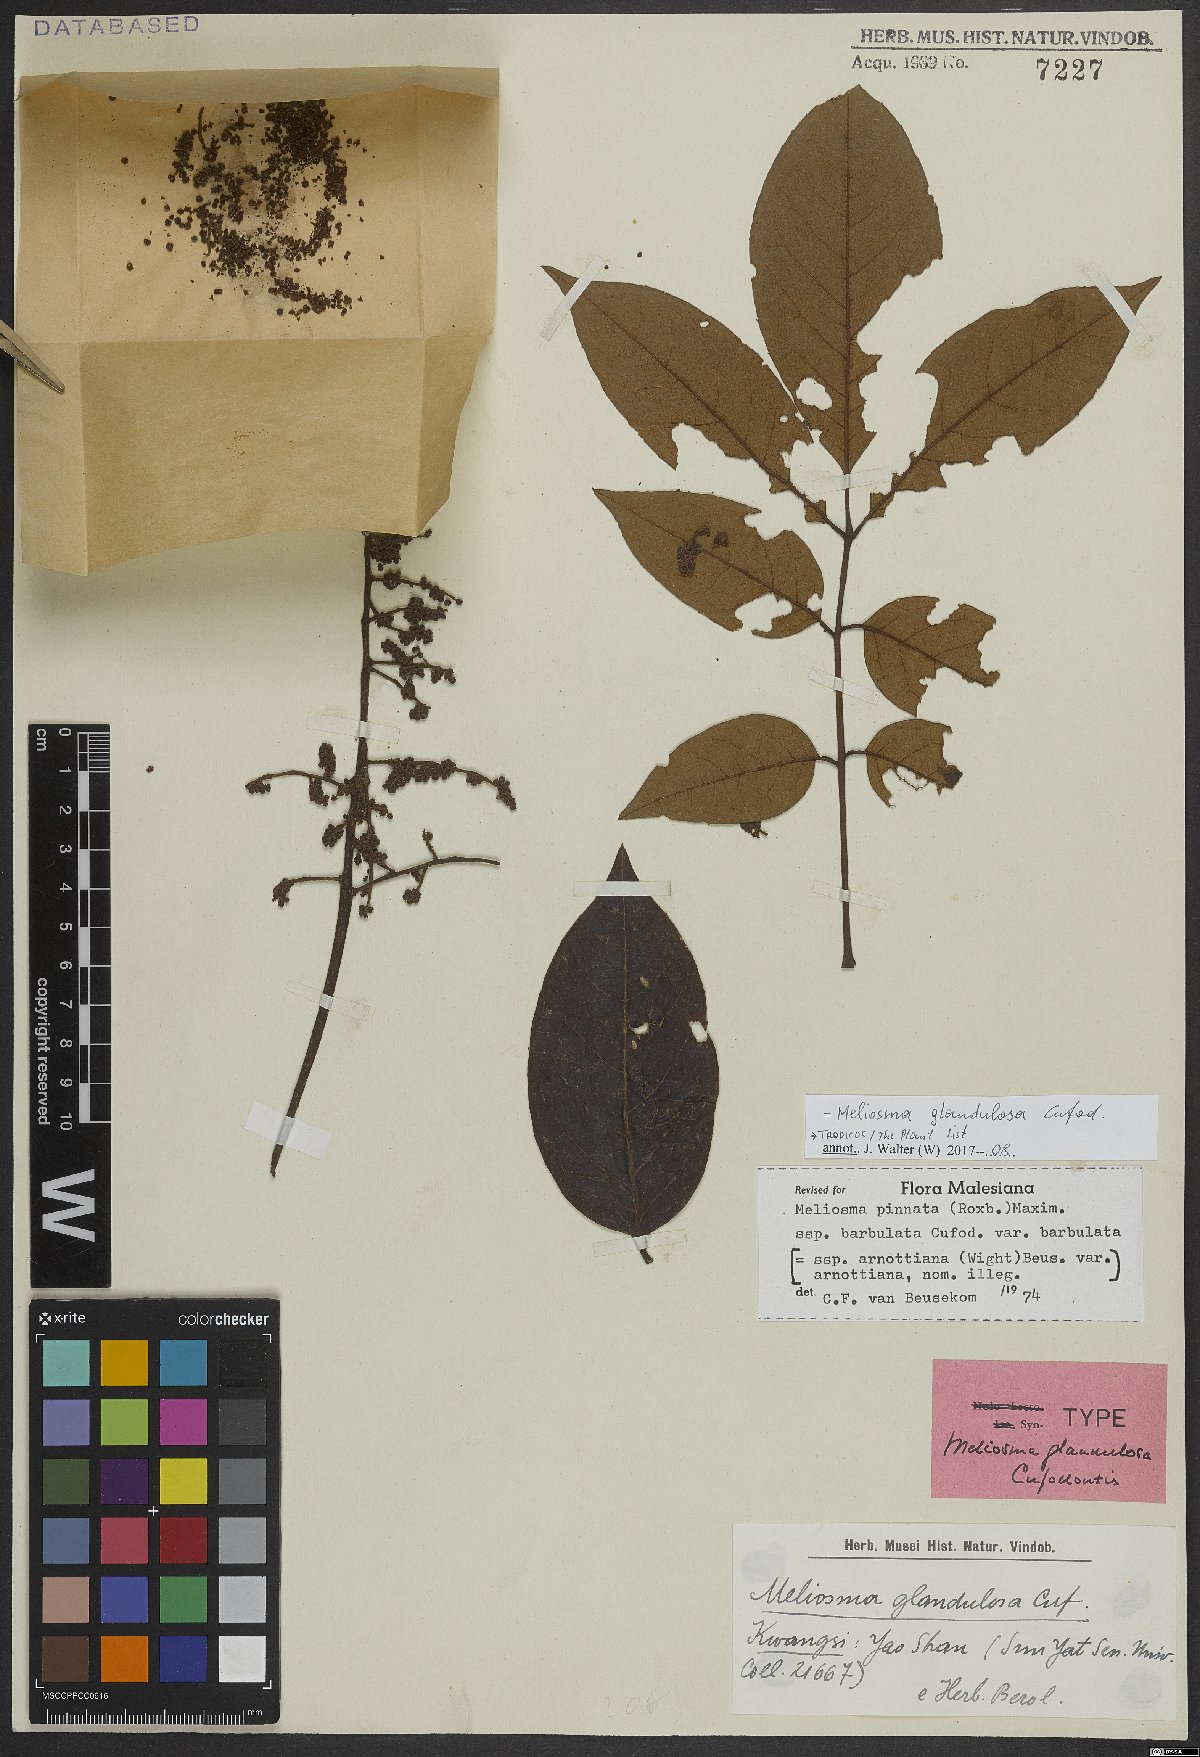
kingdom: Plantae
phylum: Tracheophyta
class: Magnoliopsida
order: Proteales
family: Sabiaceae
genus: Meliosma
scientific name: Meliosma glandulosa
